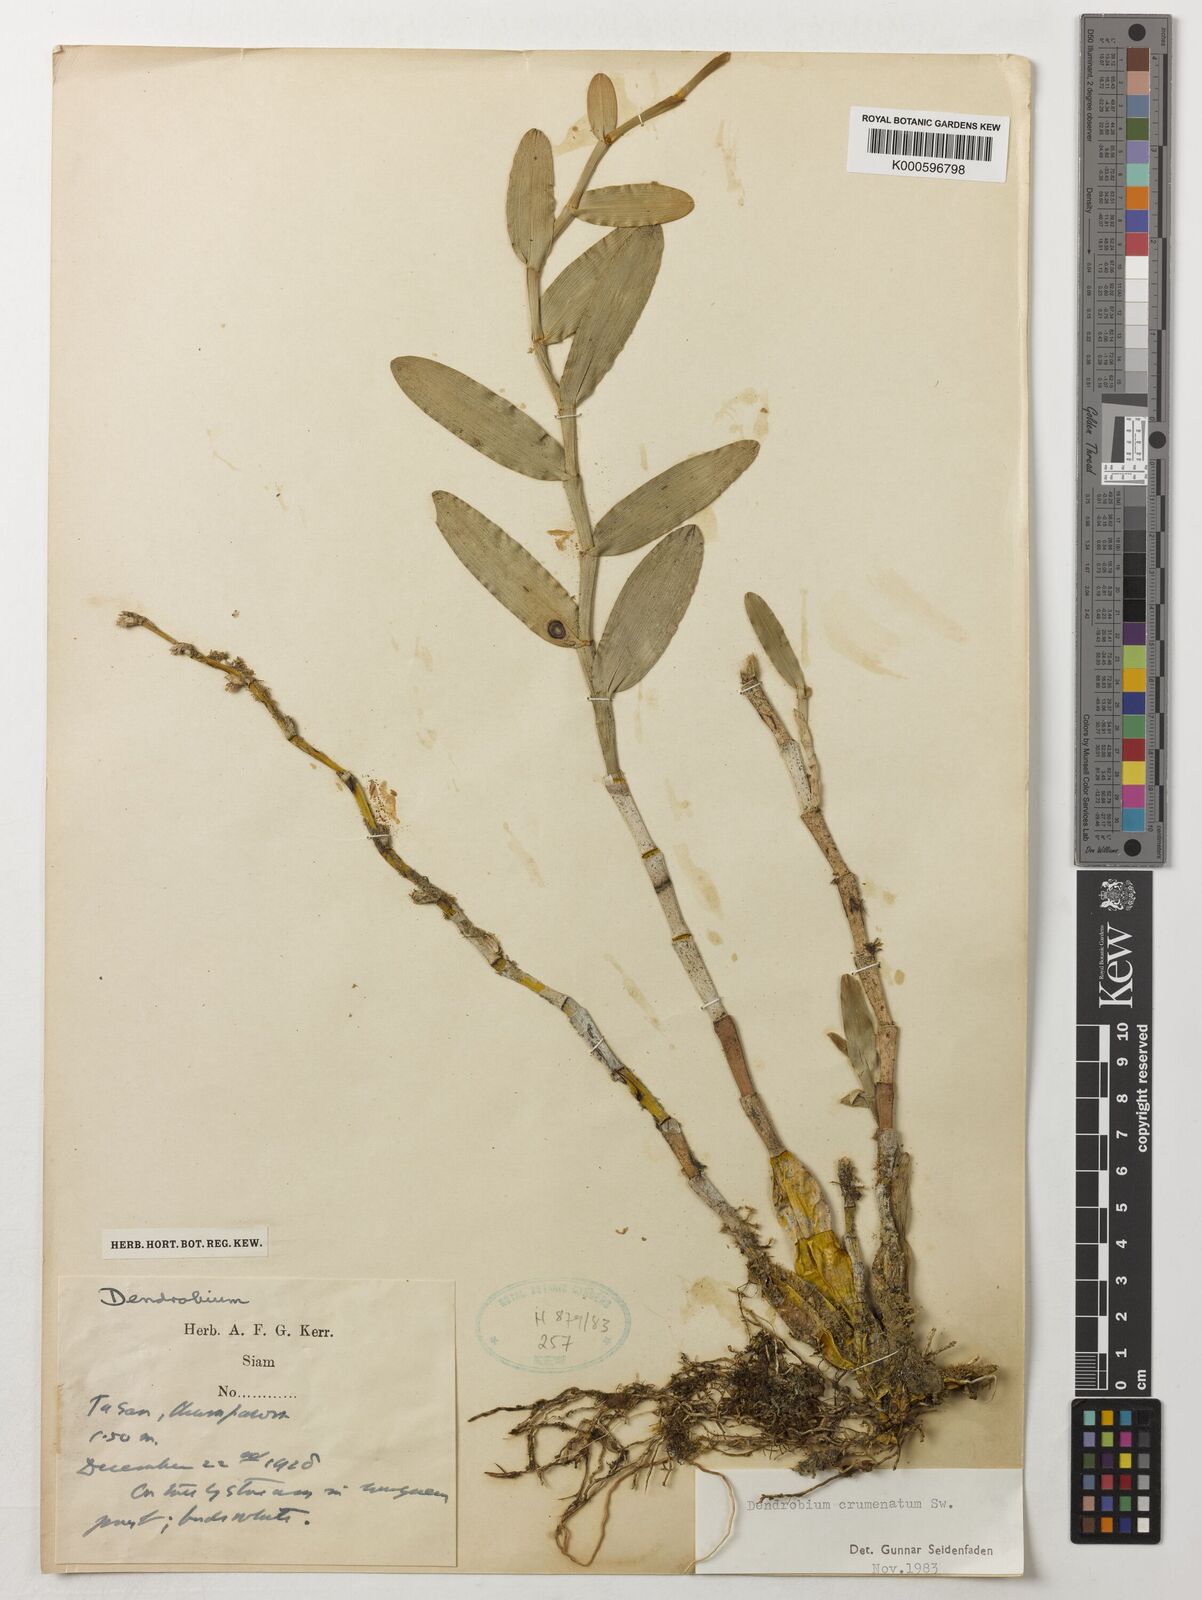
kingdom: Plantae
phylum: Tracheophyta
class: Liliopsida
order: Asparagales
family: Orchidaceae
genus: Dendrobium
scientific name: Dendrobium crumenatum
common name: Orchid
